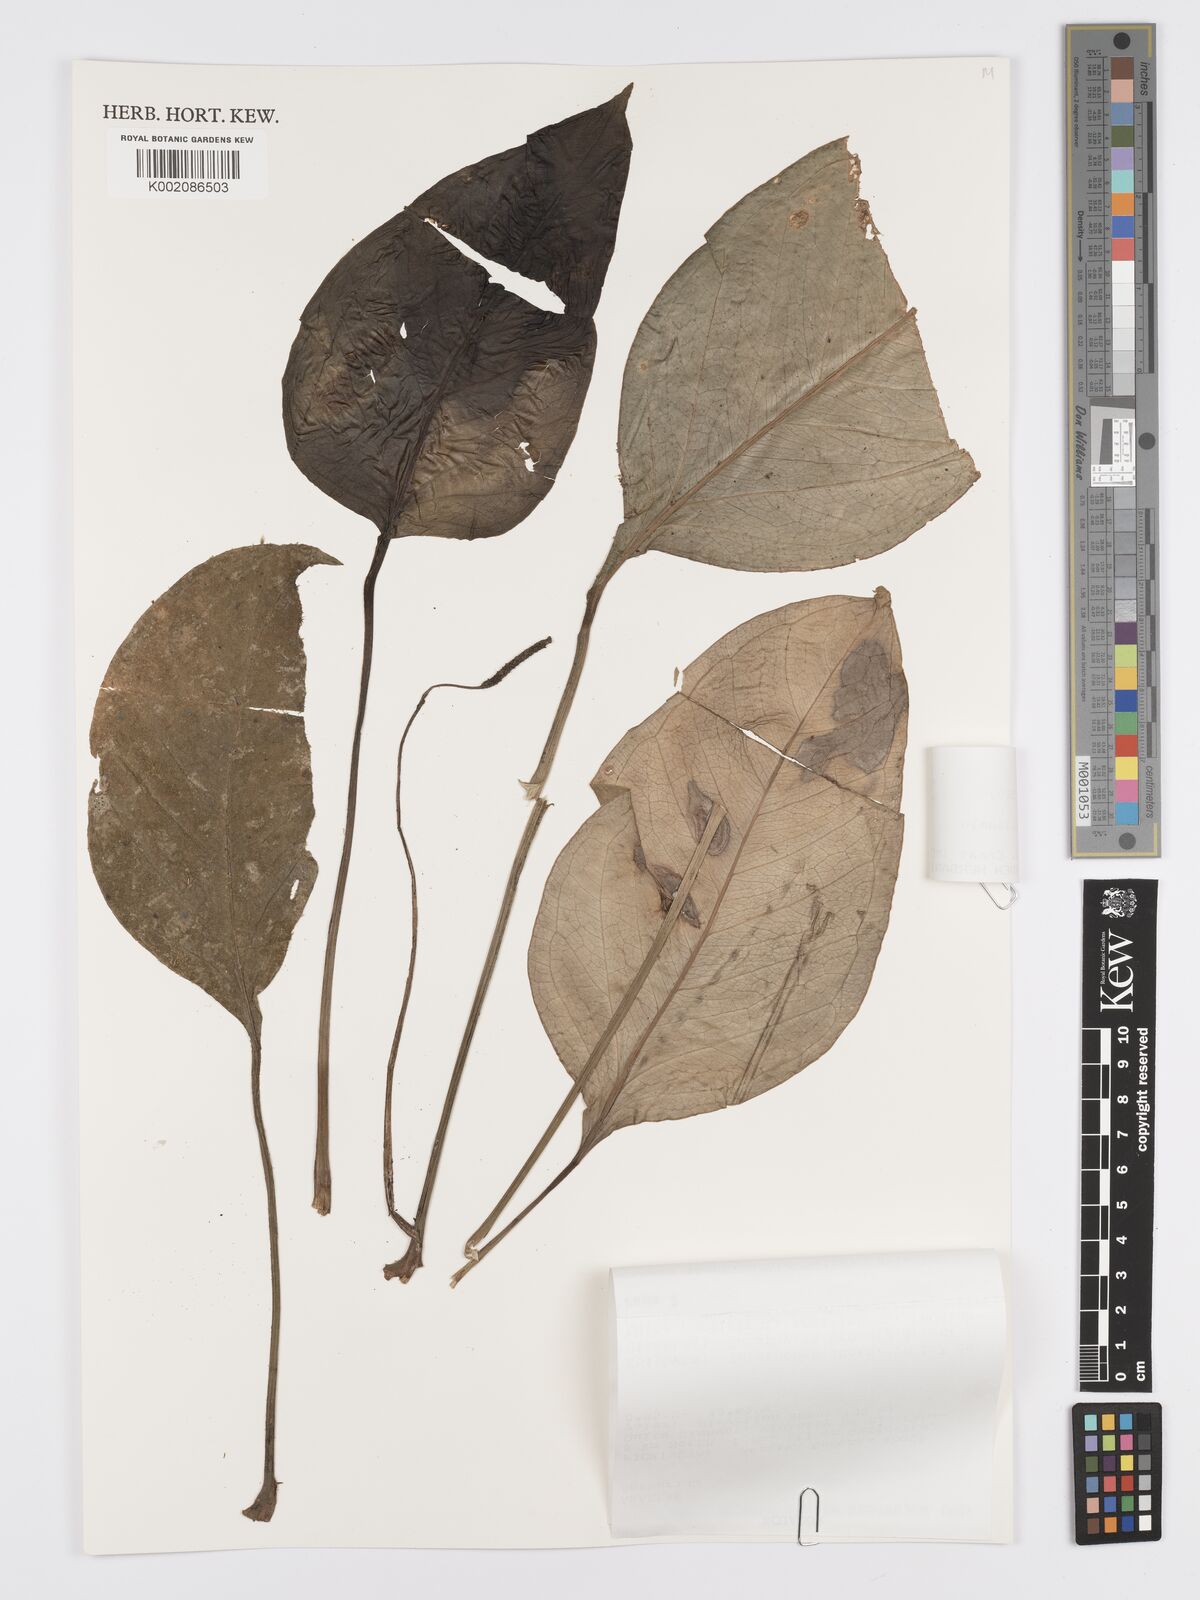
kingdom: Plantae
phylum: Tracheophyta
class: Liliopsida
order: Alismatales
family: Araceae
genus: Anthurium
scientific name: Anthurium michelii
